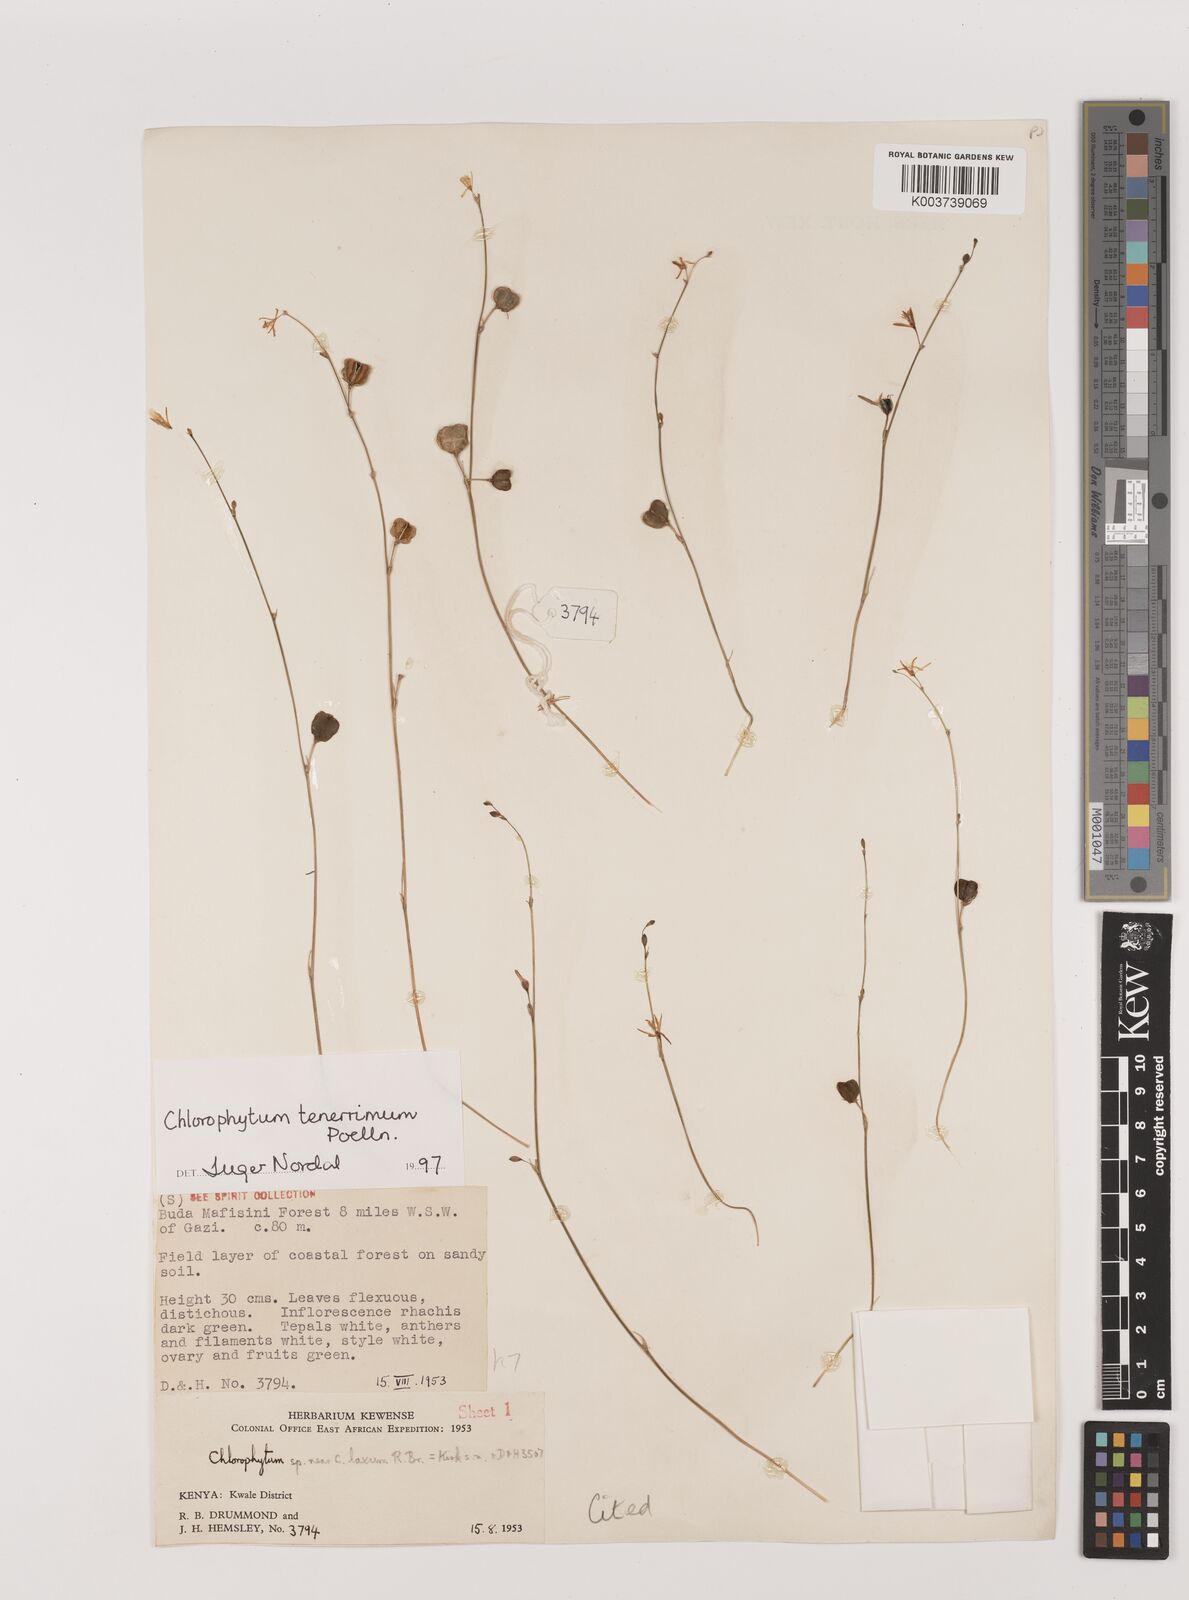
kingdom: Plantae
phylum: Tracheophyta
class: Liliopsida
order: Asparagales
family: Asparagaceae
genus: Chlorophytum
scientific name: Chlorophytum tenerrimum
